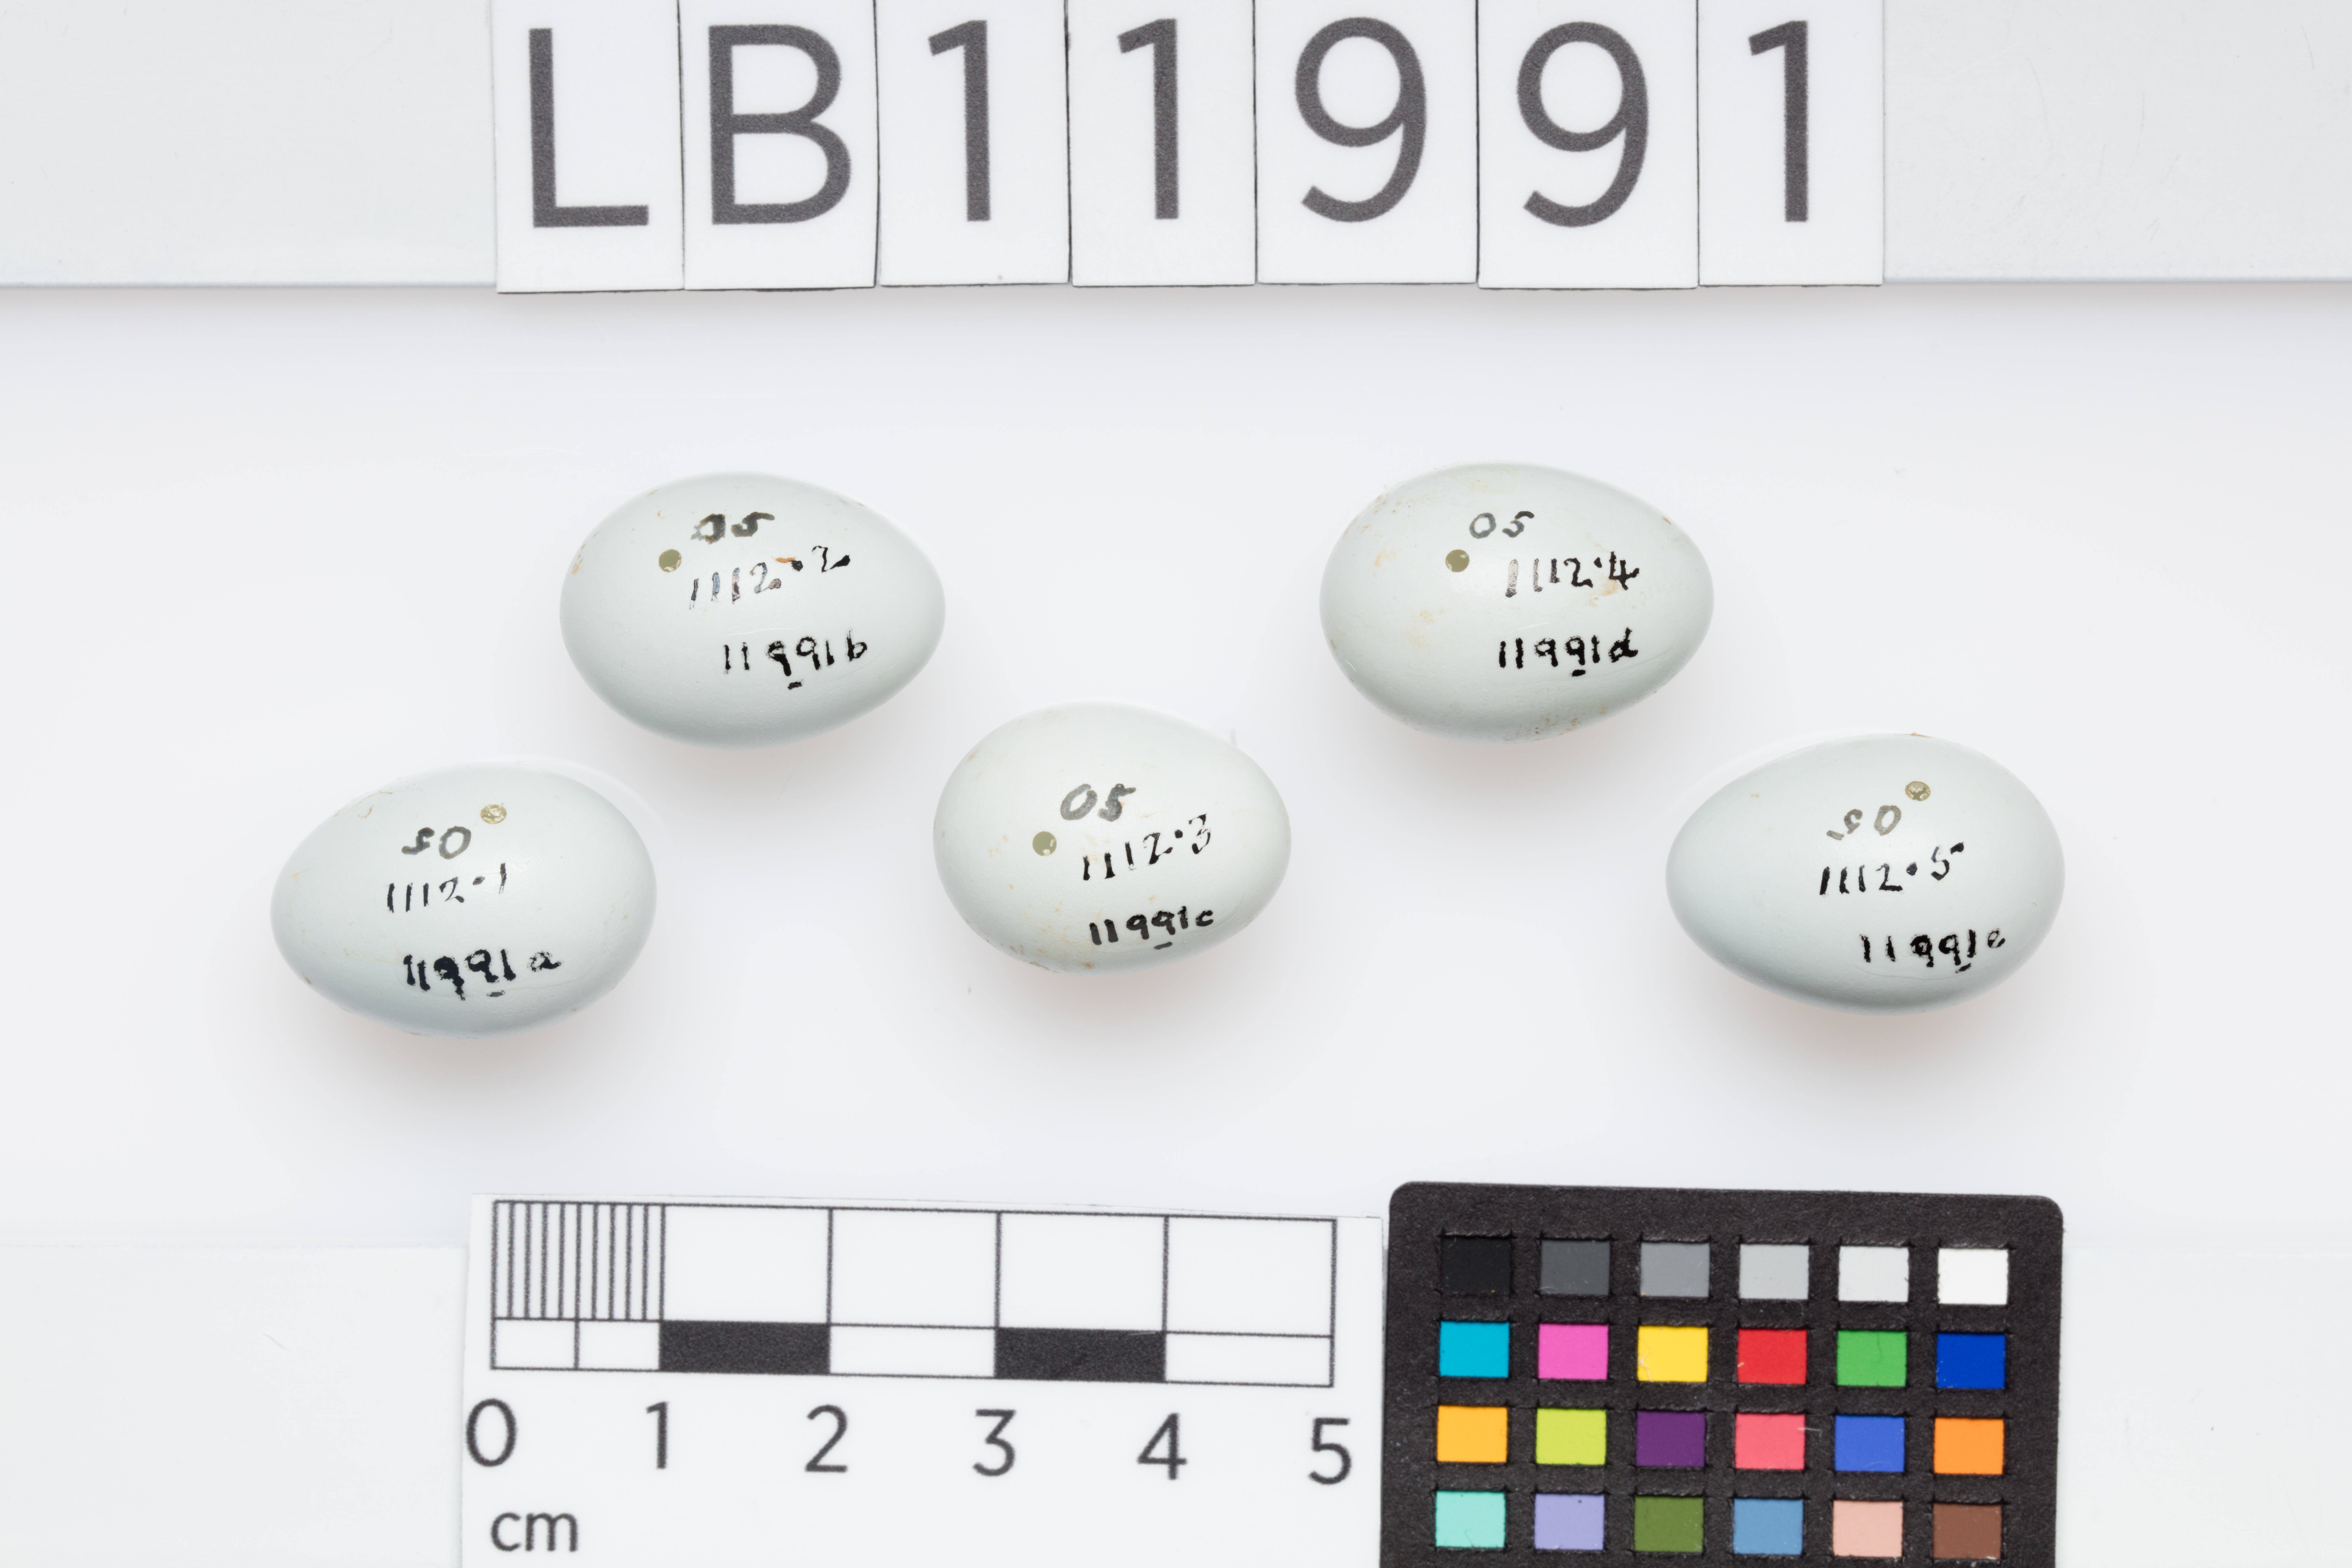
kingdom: Animalia
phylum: Chordata
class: Aves
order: Passeriformes
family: Turdidae
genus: Sialia
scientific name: Sialia currucoides
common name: Mountain bluebird
